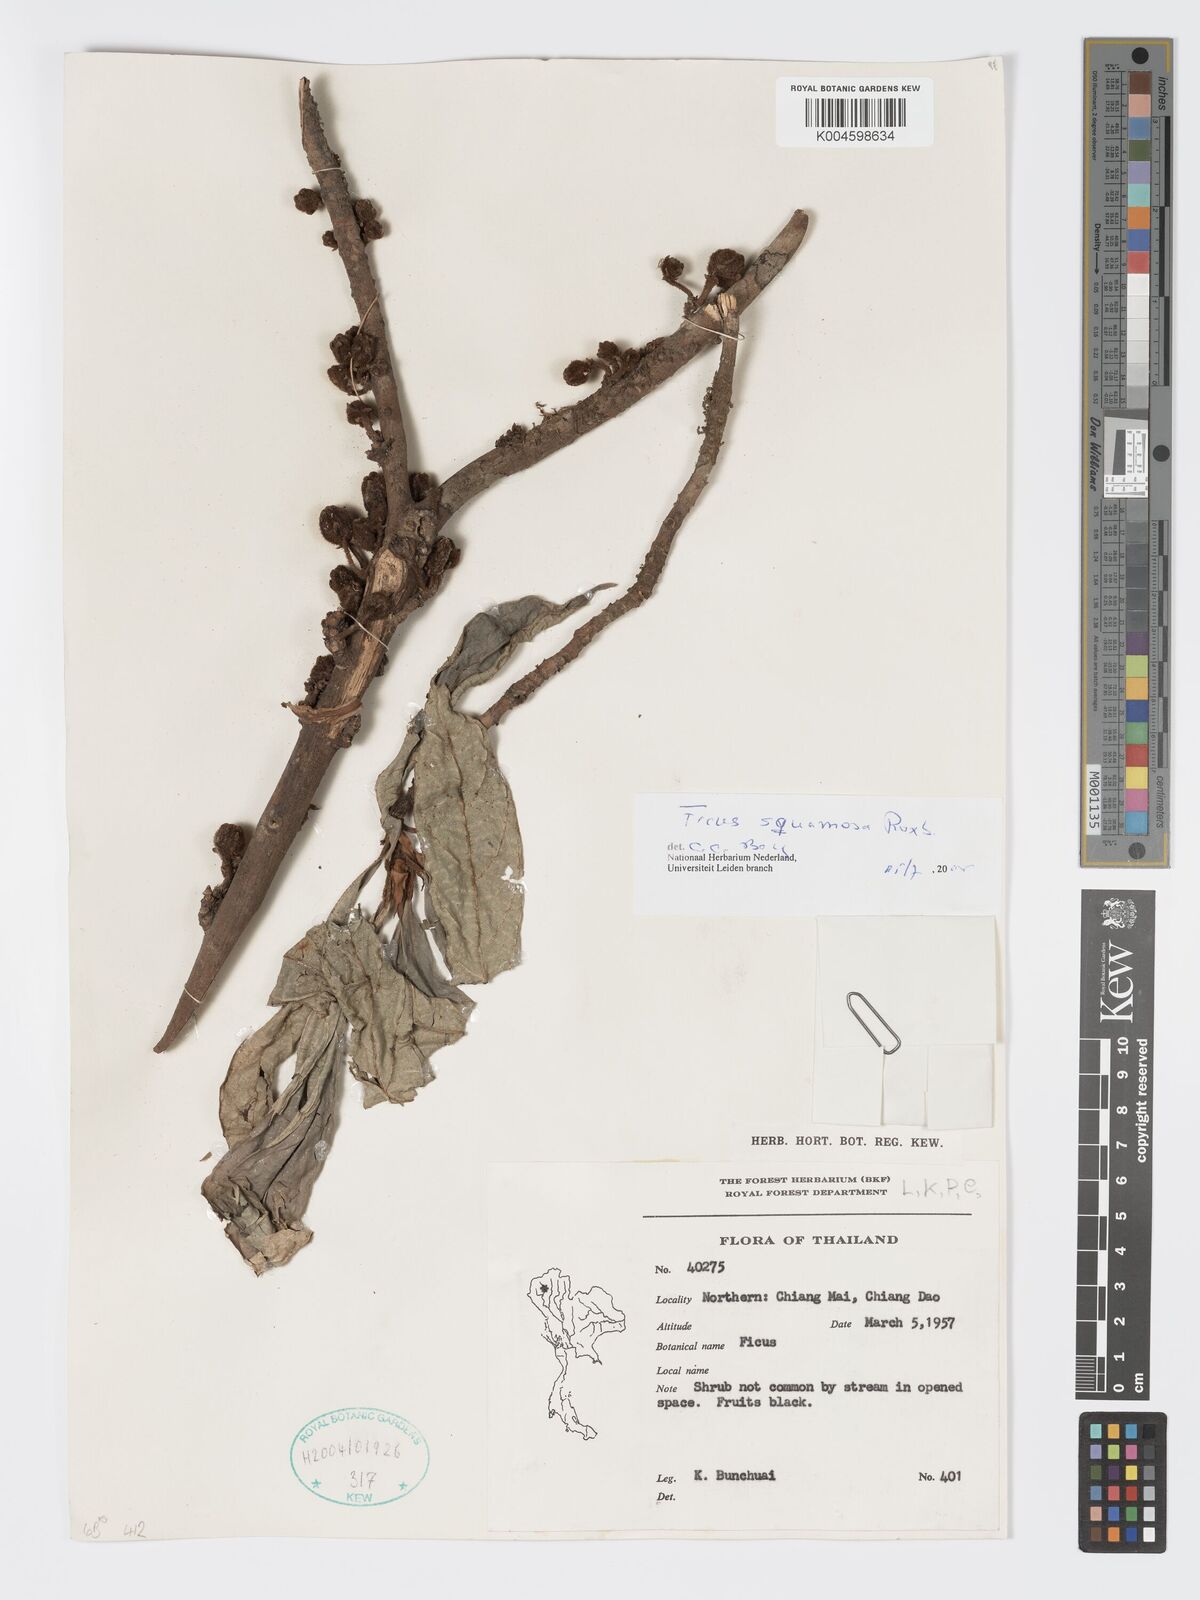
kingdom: Plantae
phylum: Tracheophyta
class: Magnoliopsida
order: Rosales
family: Moraceae
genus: Ficus
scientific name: Ficus squamosa
